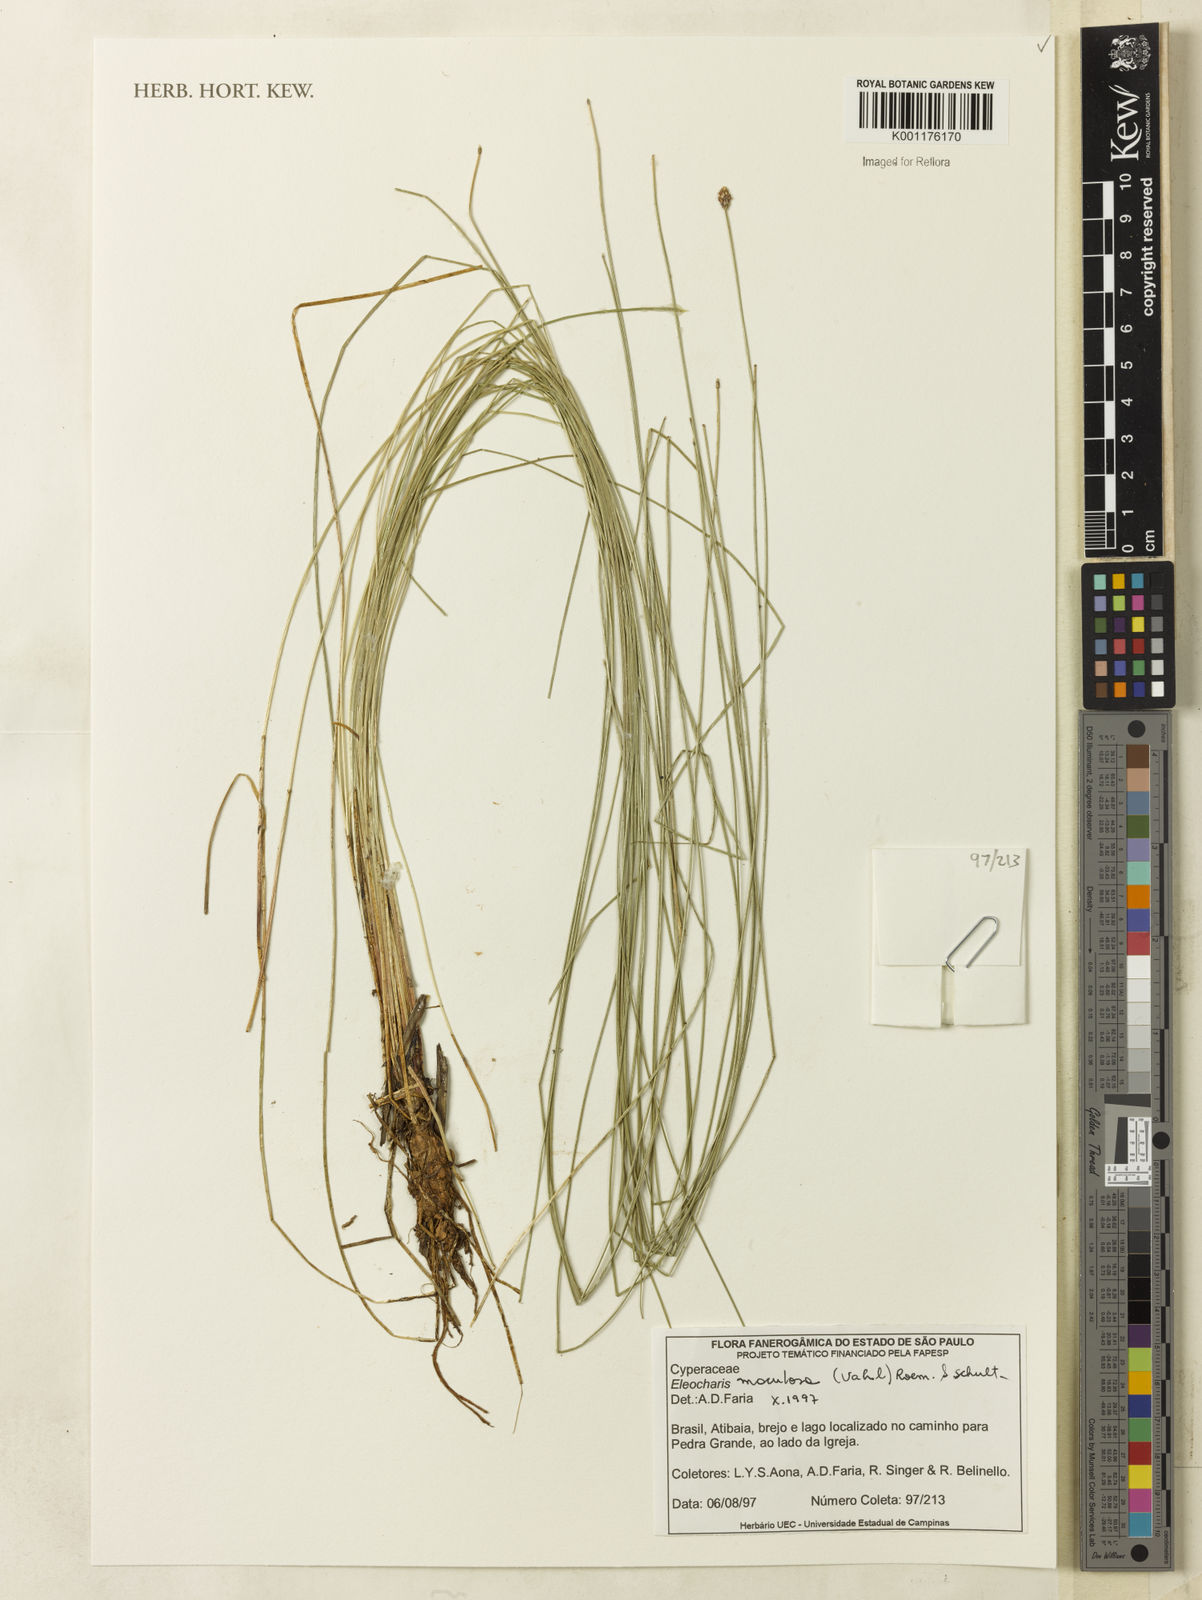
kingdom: Plantae
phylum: Tracheophyta
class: Liliopsida
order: Poales
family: Cyperaceae
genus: Eleocharis
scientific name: Eleocharis maculosa
